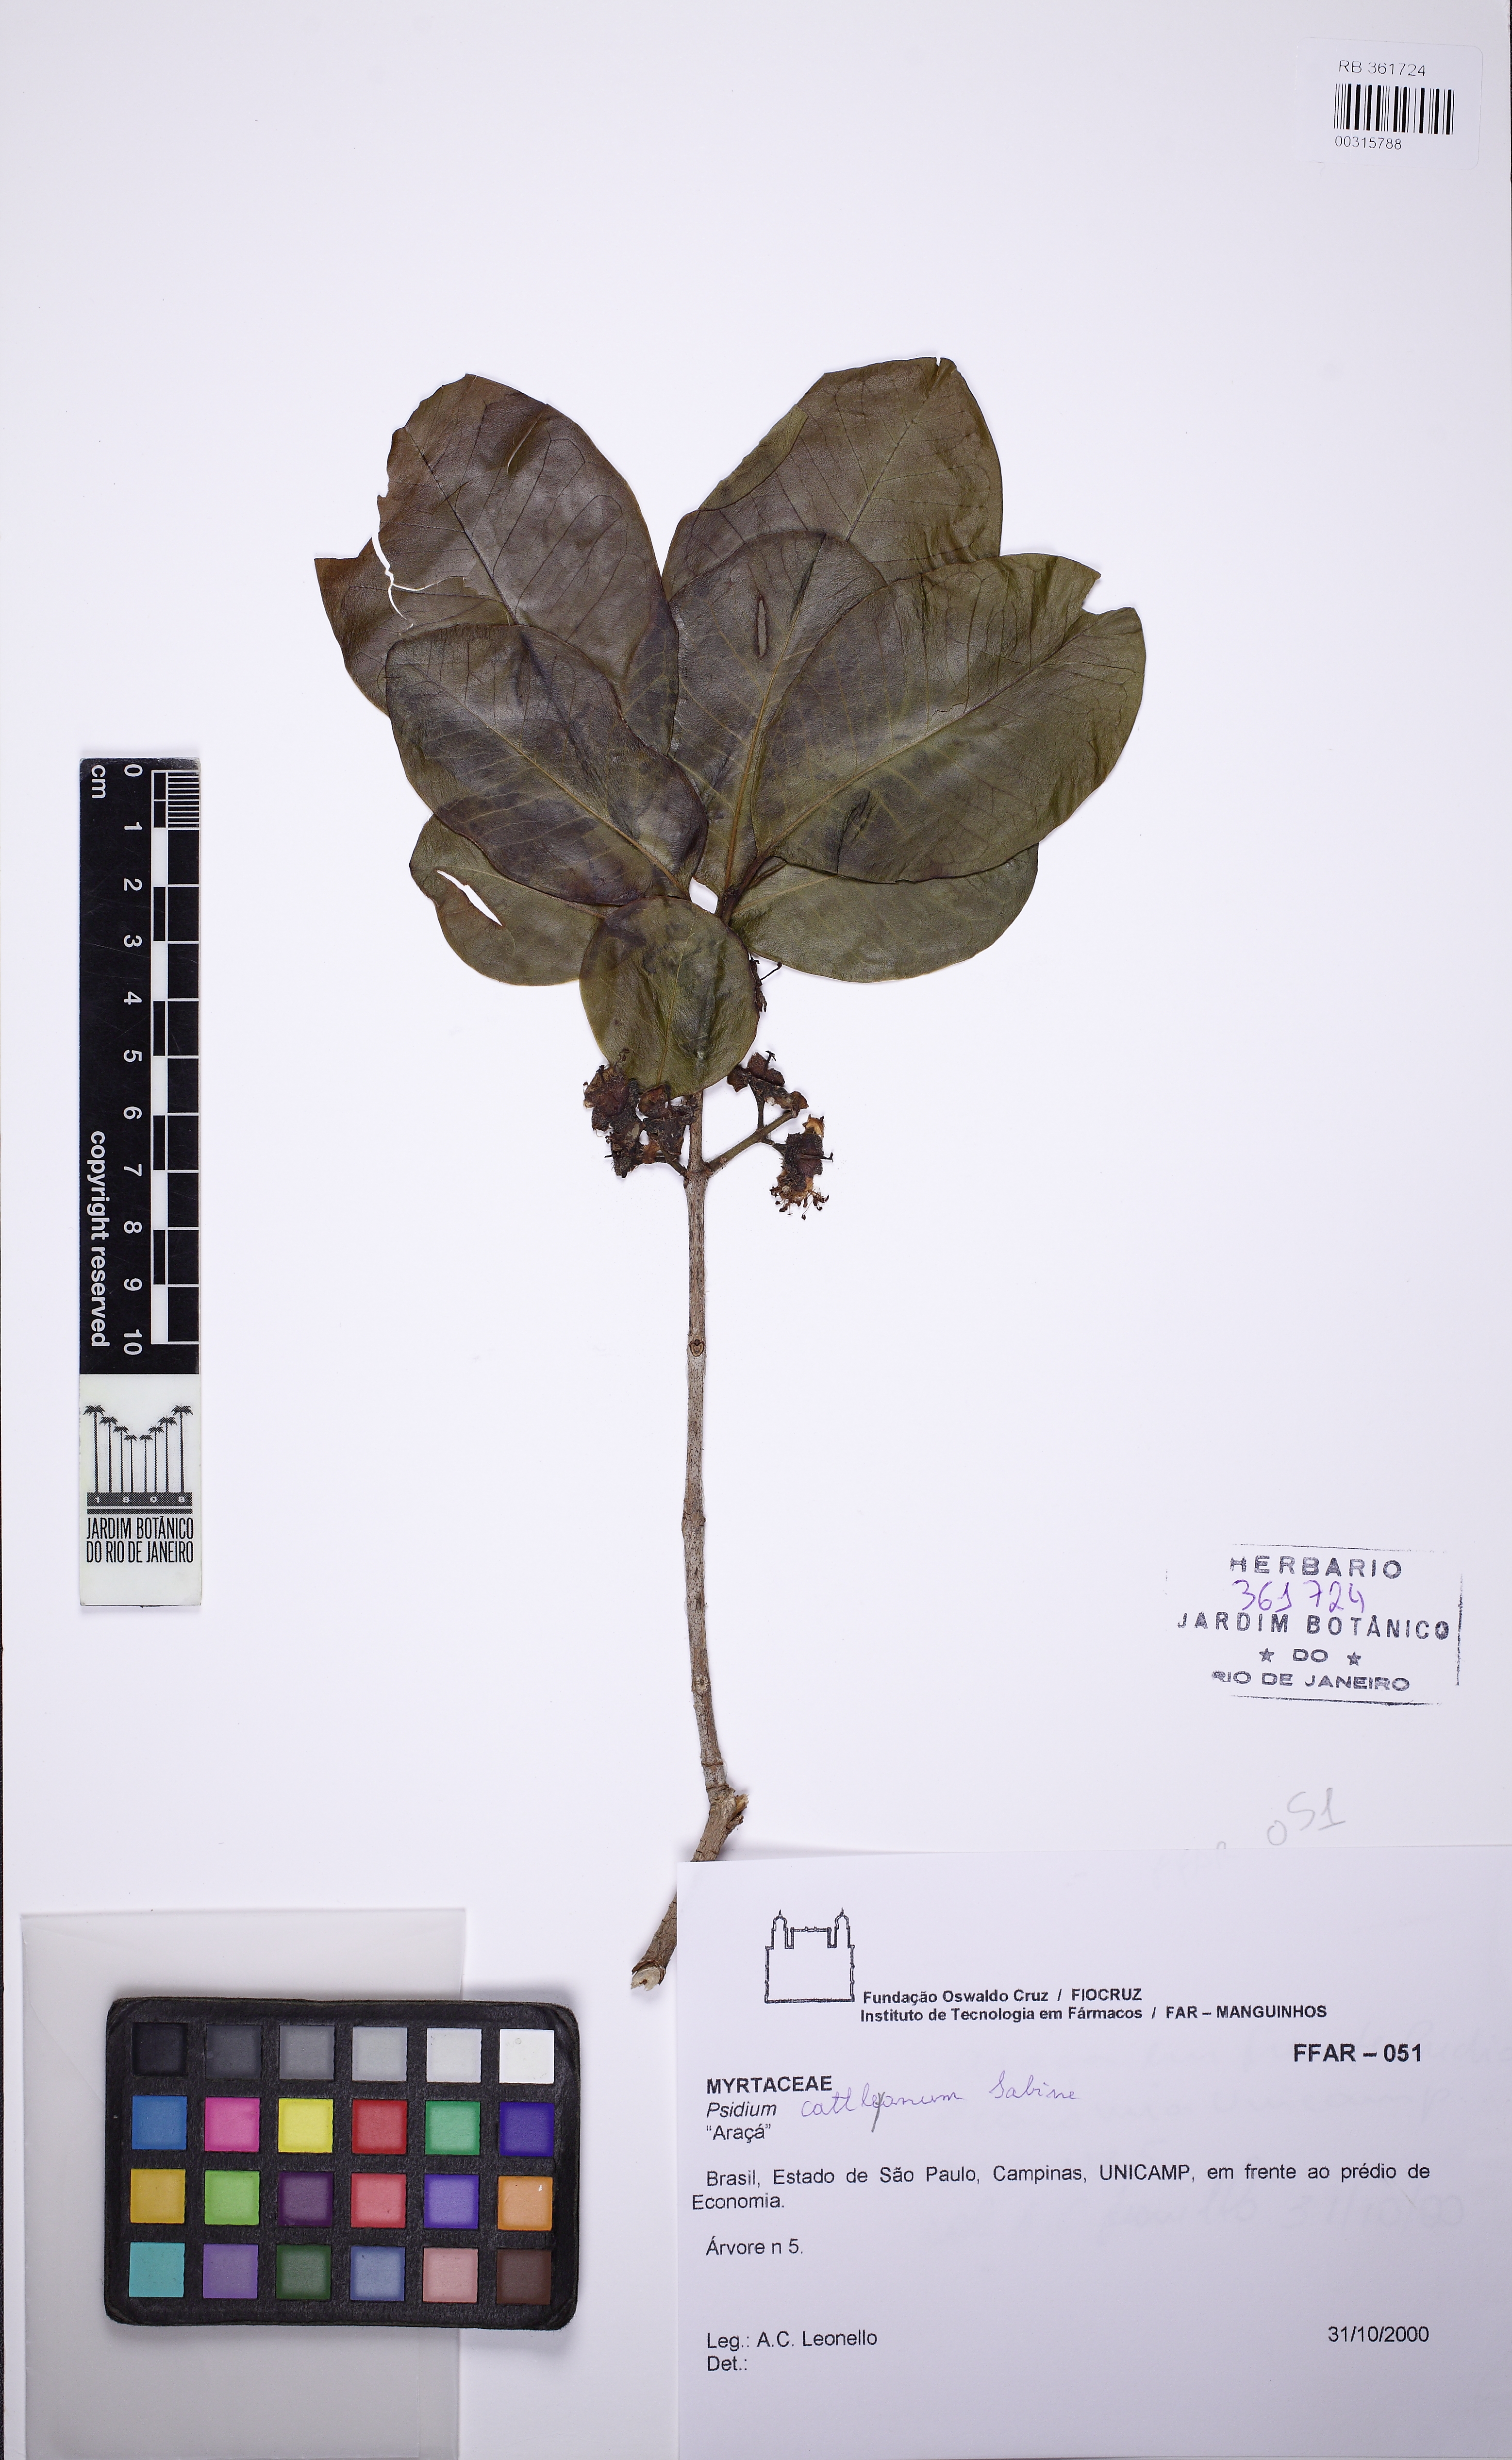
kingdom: Plantae
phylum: Tracheophyta
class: Magnoliopsida
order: Myrtales
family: Myrtaceae
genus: Psidium
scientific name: Psidium cattleianum
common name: Strawberry guava
